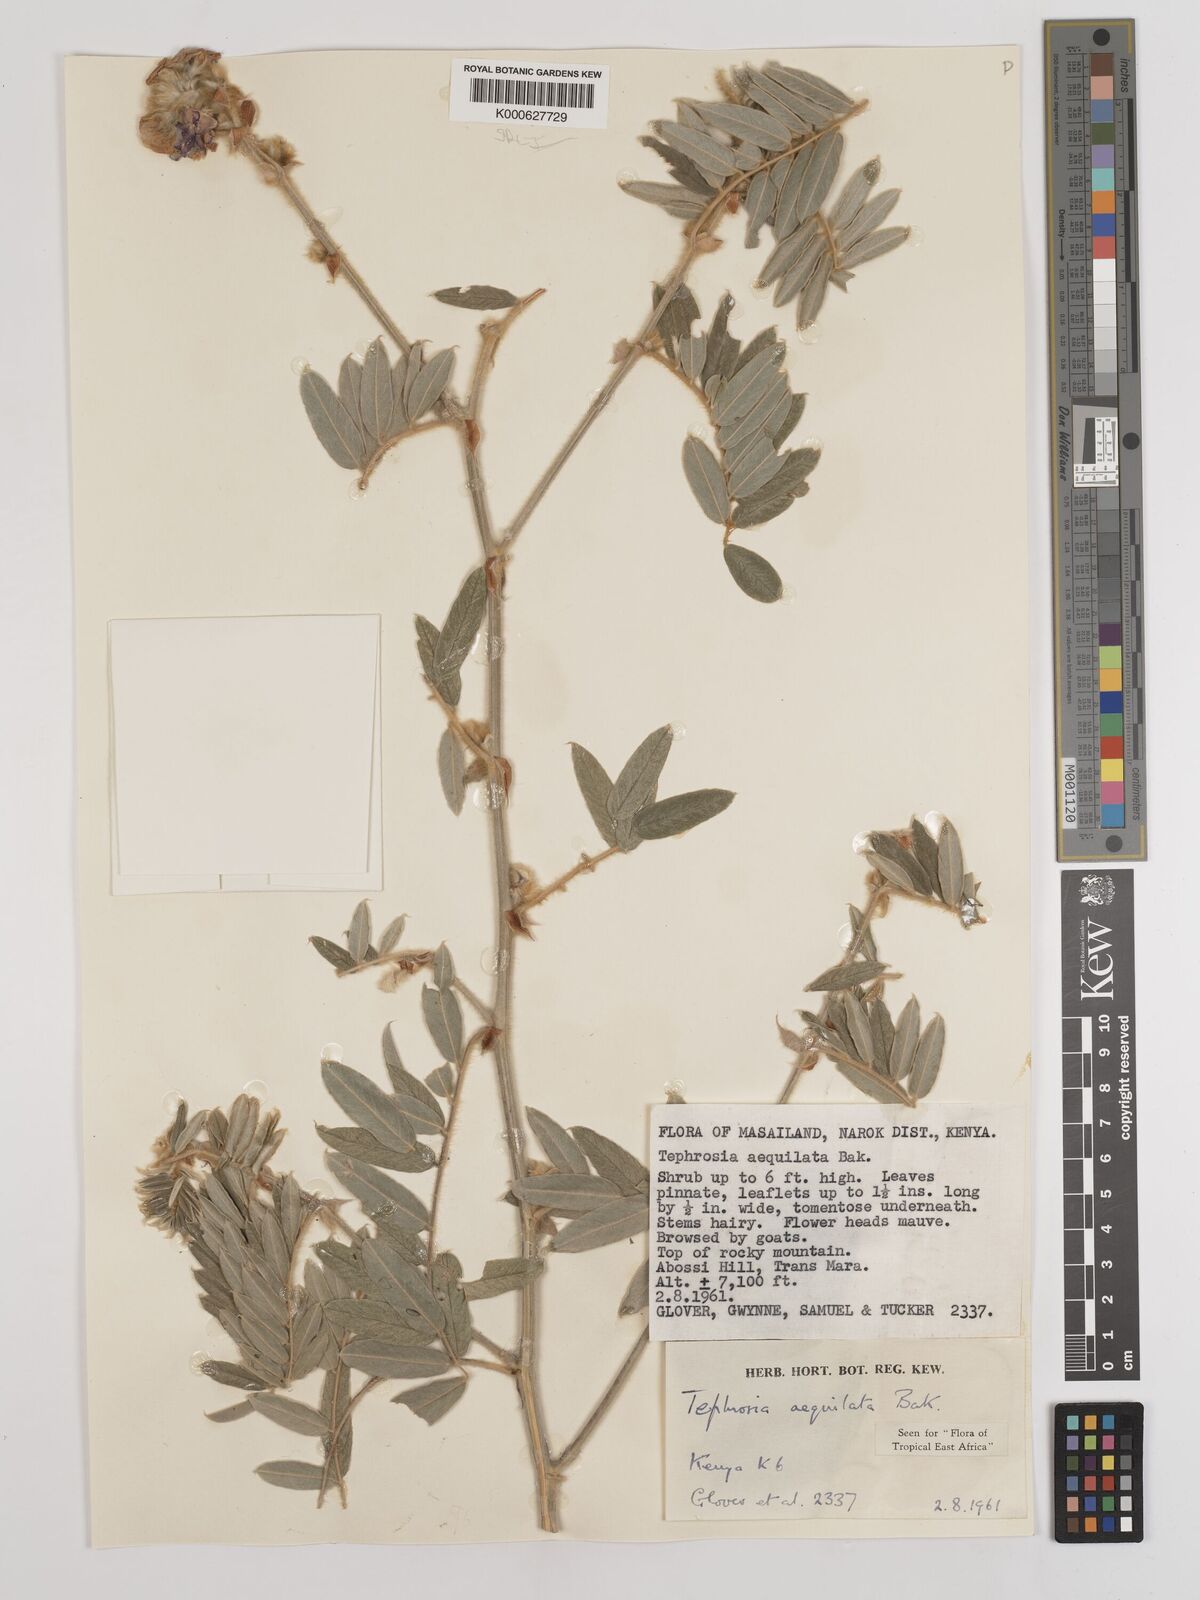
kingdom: Plantae
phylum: Tracheophyta
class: Magnoliopsida
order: Fabales
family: Fabaceae
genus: Tephrosia
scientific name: Tephrosia aequilata
